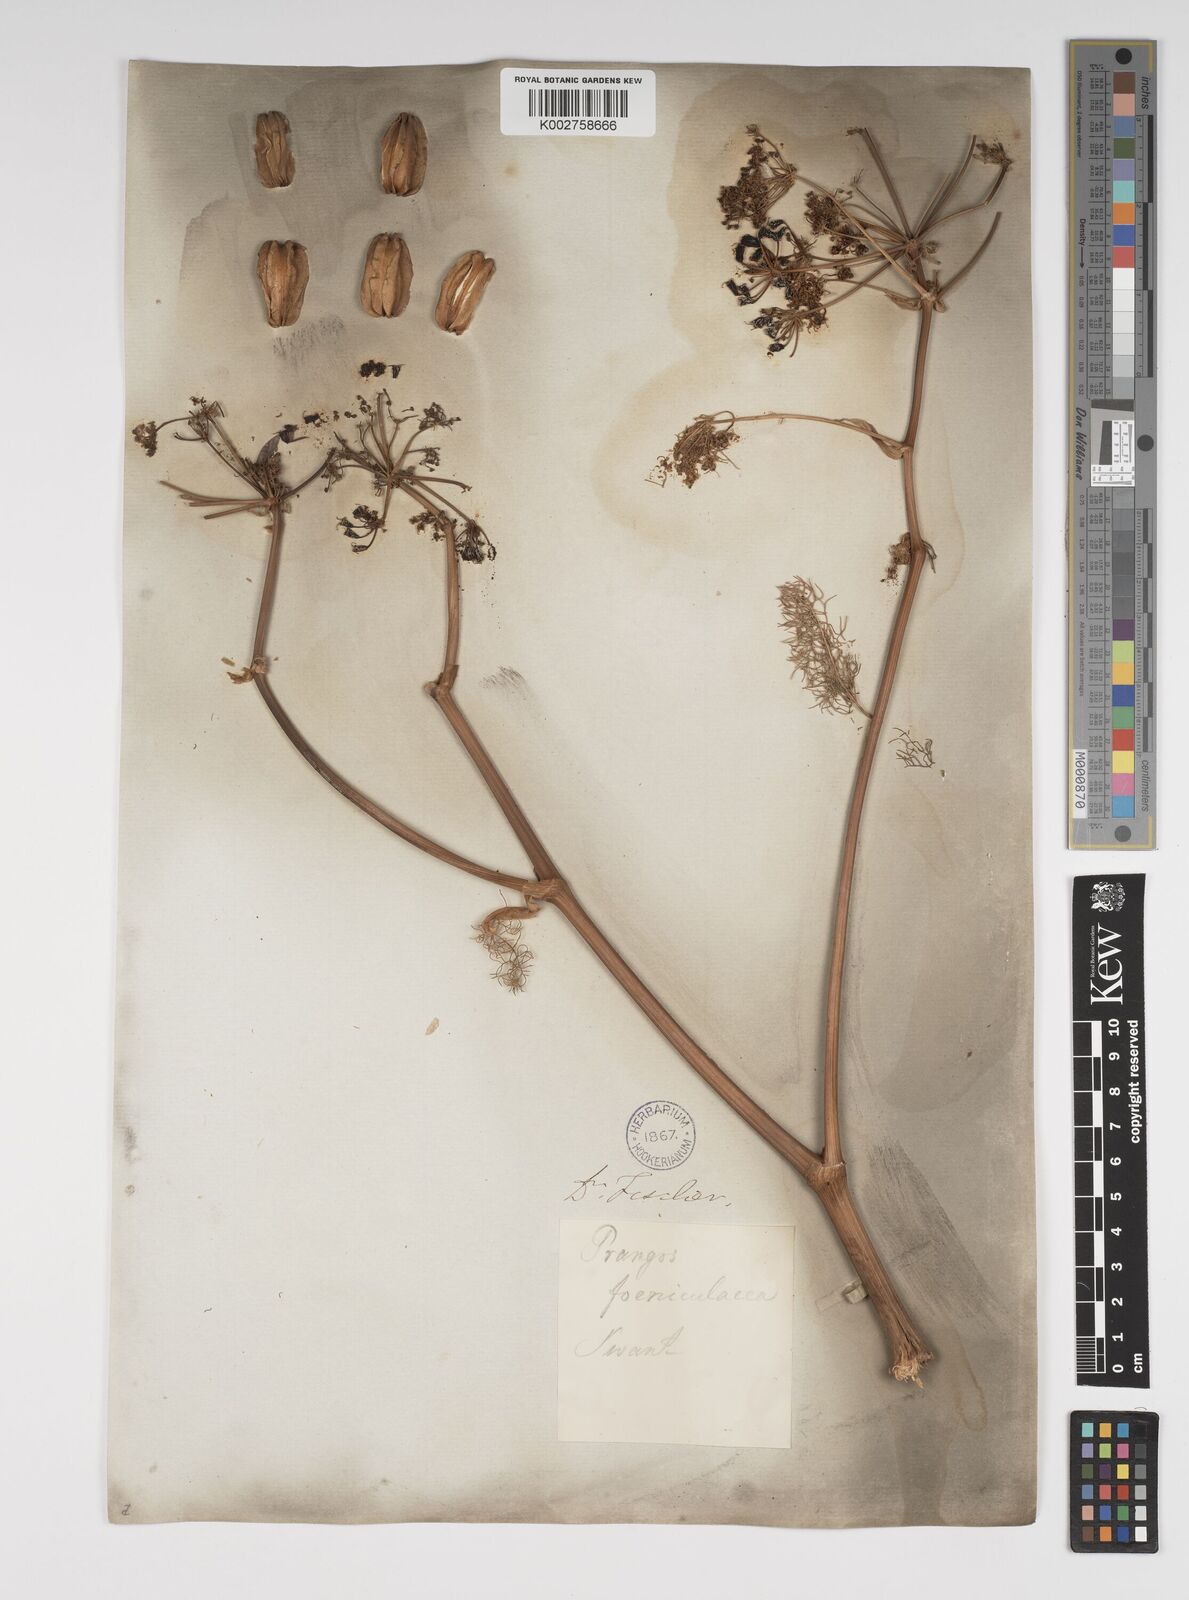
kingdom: Plantae
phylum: Tracheophyta
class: Magnoliopsida
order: Apiales
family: Apiaceae
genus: Prangos
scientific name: Prangos ferulacea
